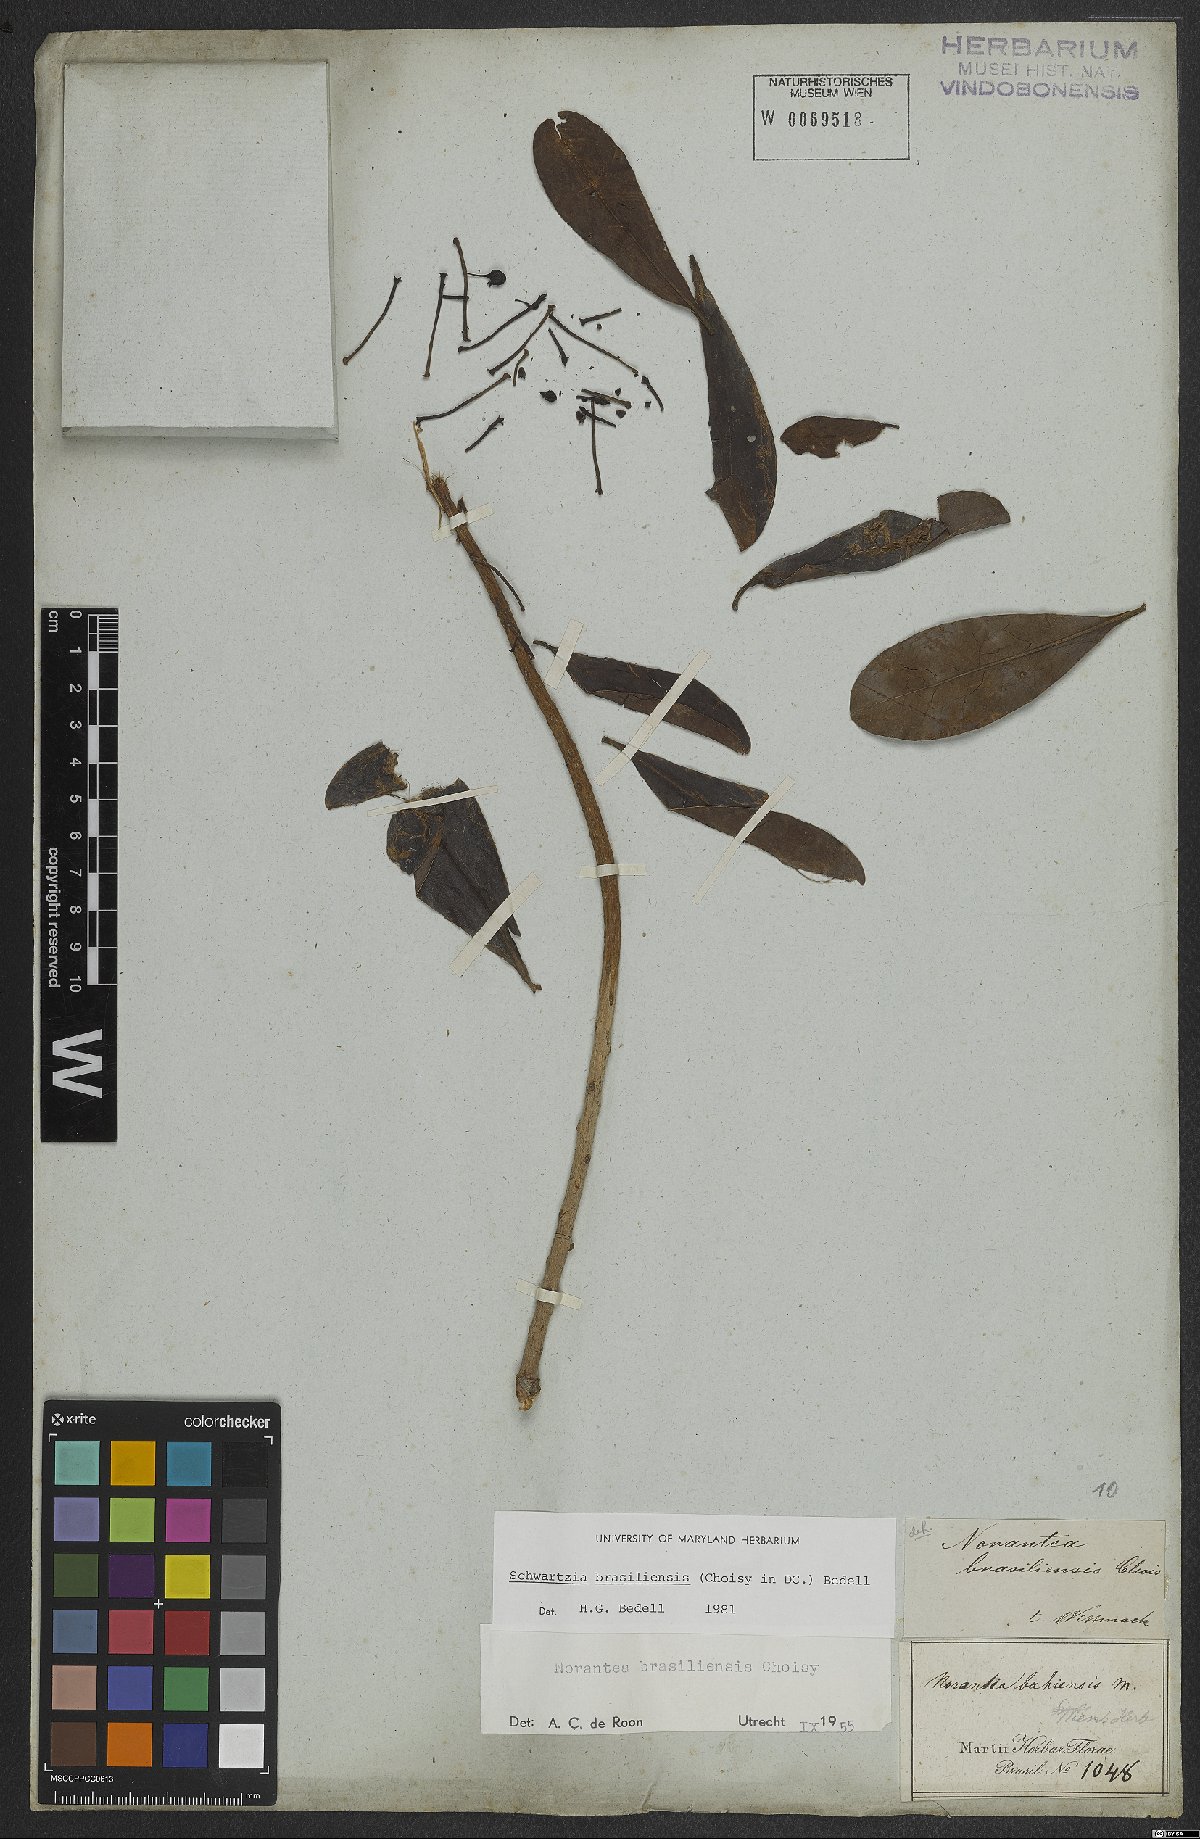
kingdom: Plantae
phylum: Tracheophyta
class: Magnoliopsida
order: Ericales
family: Marcgraviaceae
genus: Schwartzia
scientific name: Schwartzia brasiliensis
